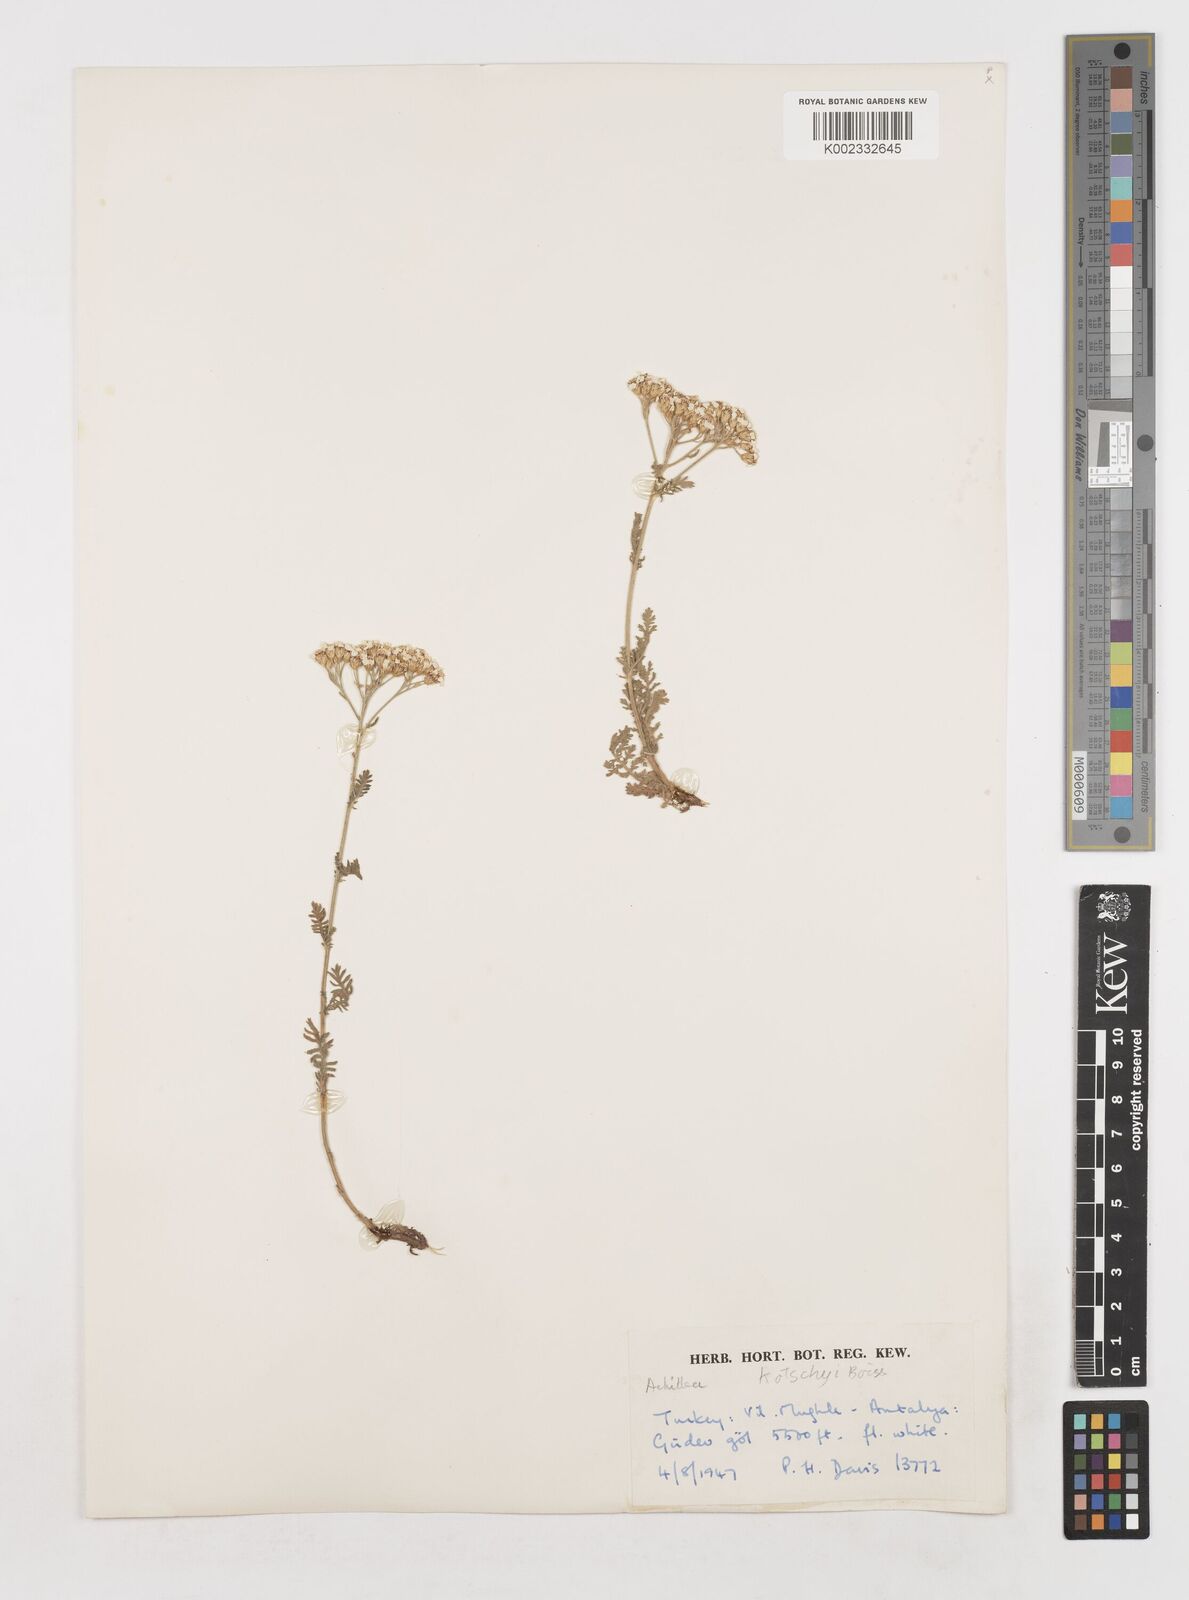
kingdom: Plantae
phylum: Tracheophyta
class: Magnoliopsida
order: Asterales
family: Asteraceae
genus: Achillea
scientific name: Achillea kotschyi
